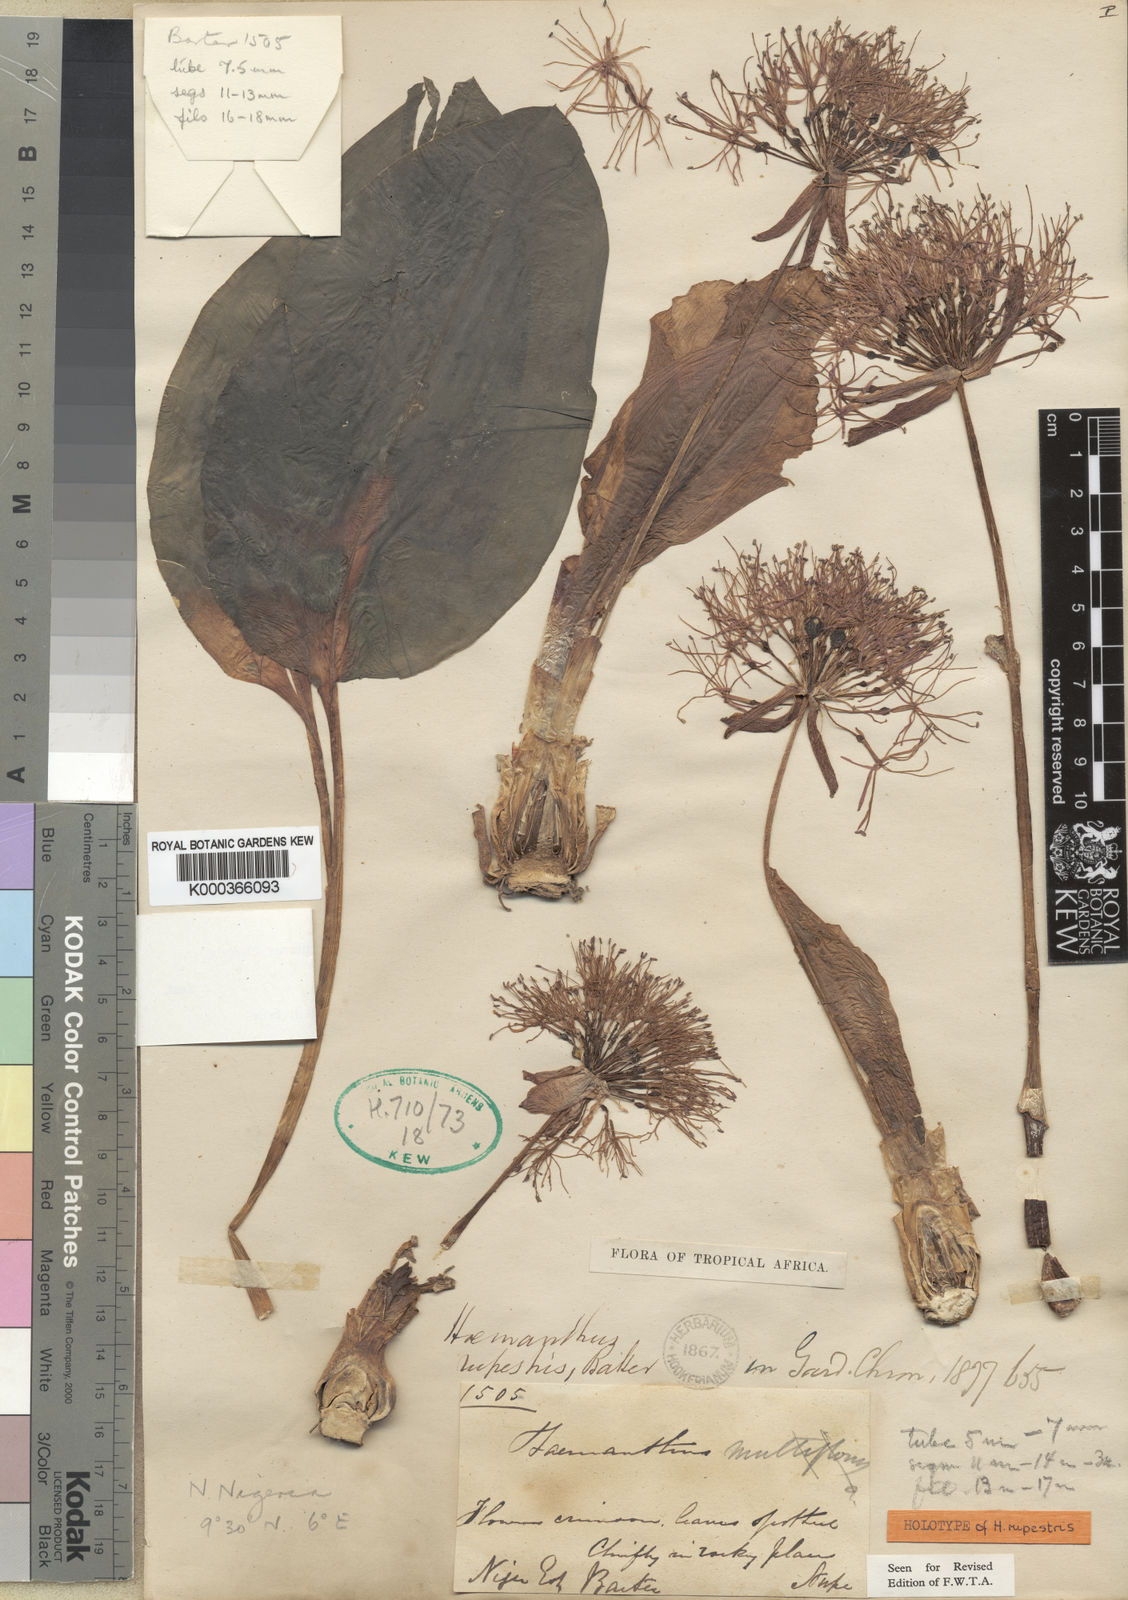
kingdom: Plantae
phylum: Tracheophyta
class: Liliopsida
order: Asparagales
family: Amaryllidaceae
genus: Scadoxus
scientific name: Scadoxus multiflorus
